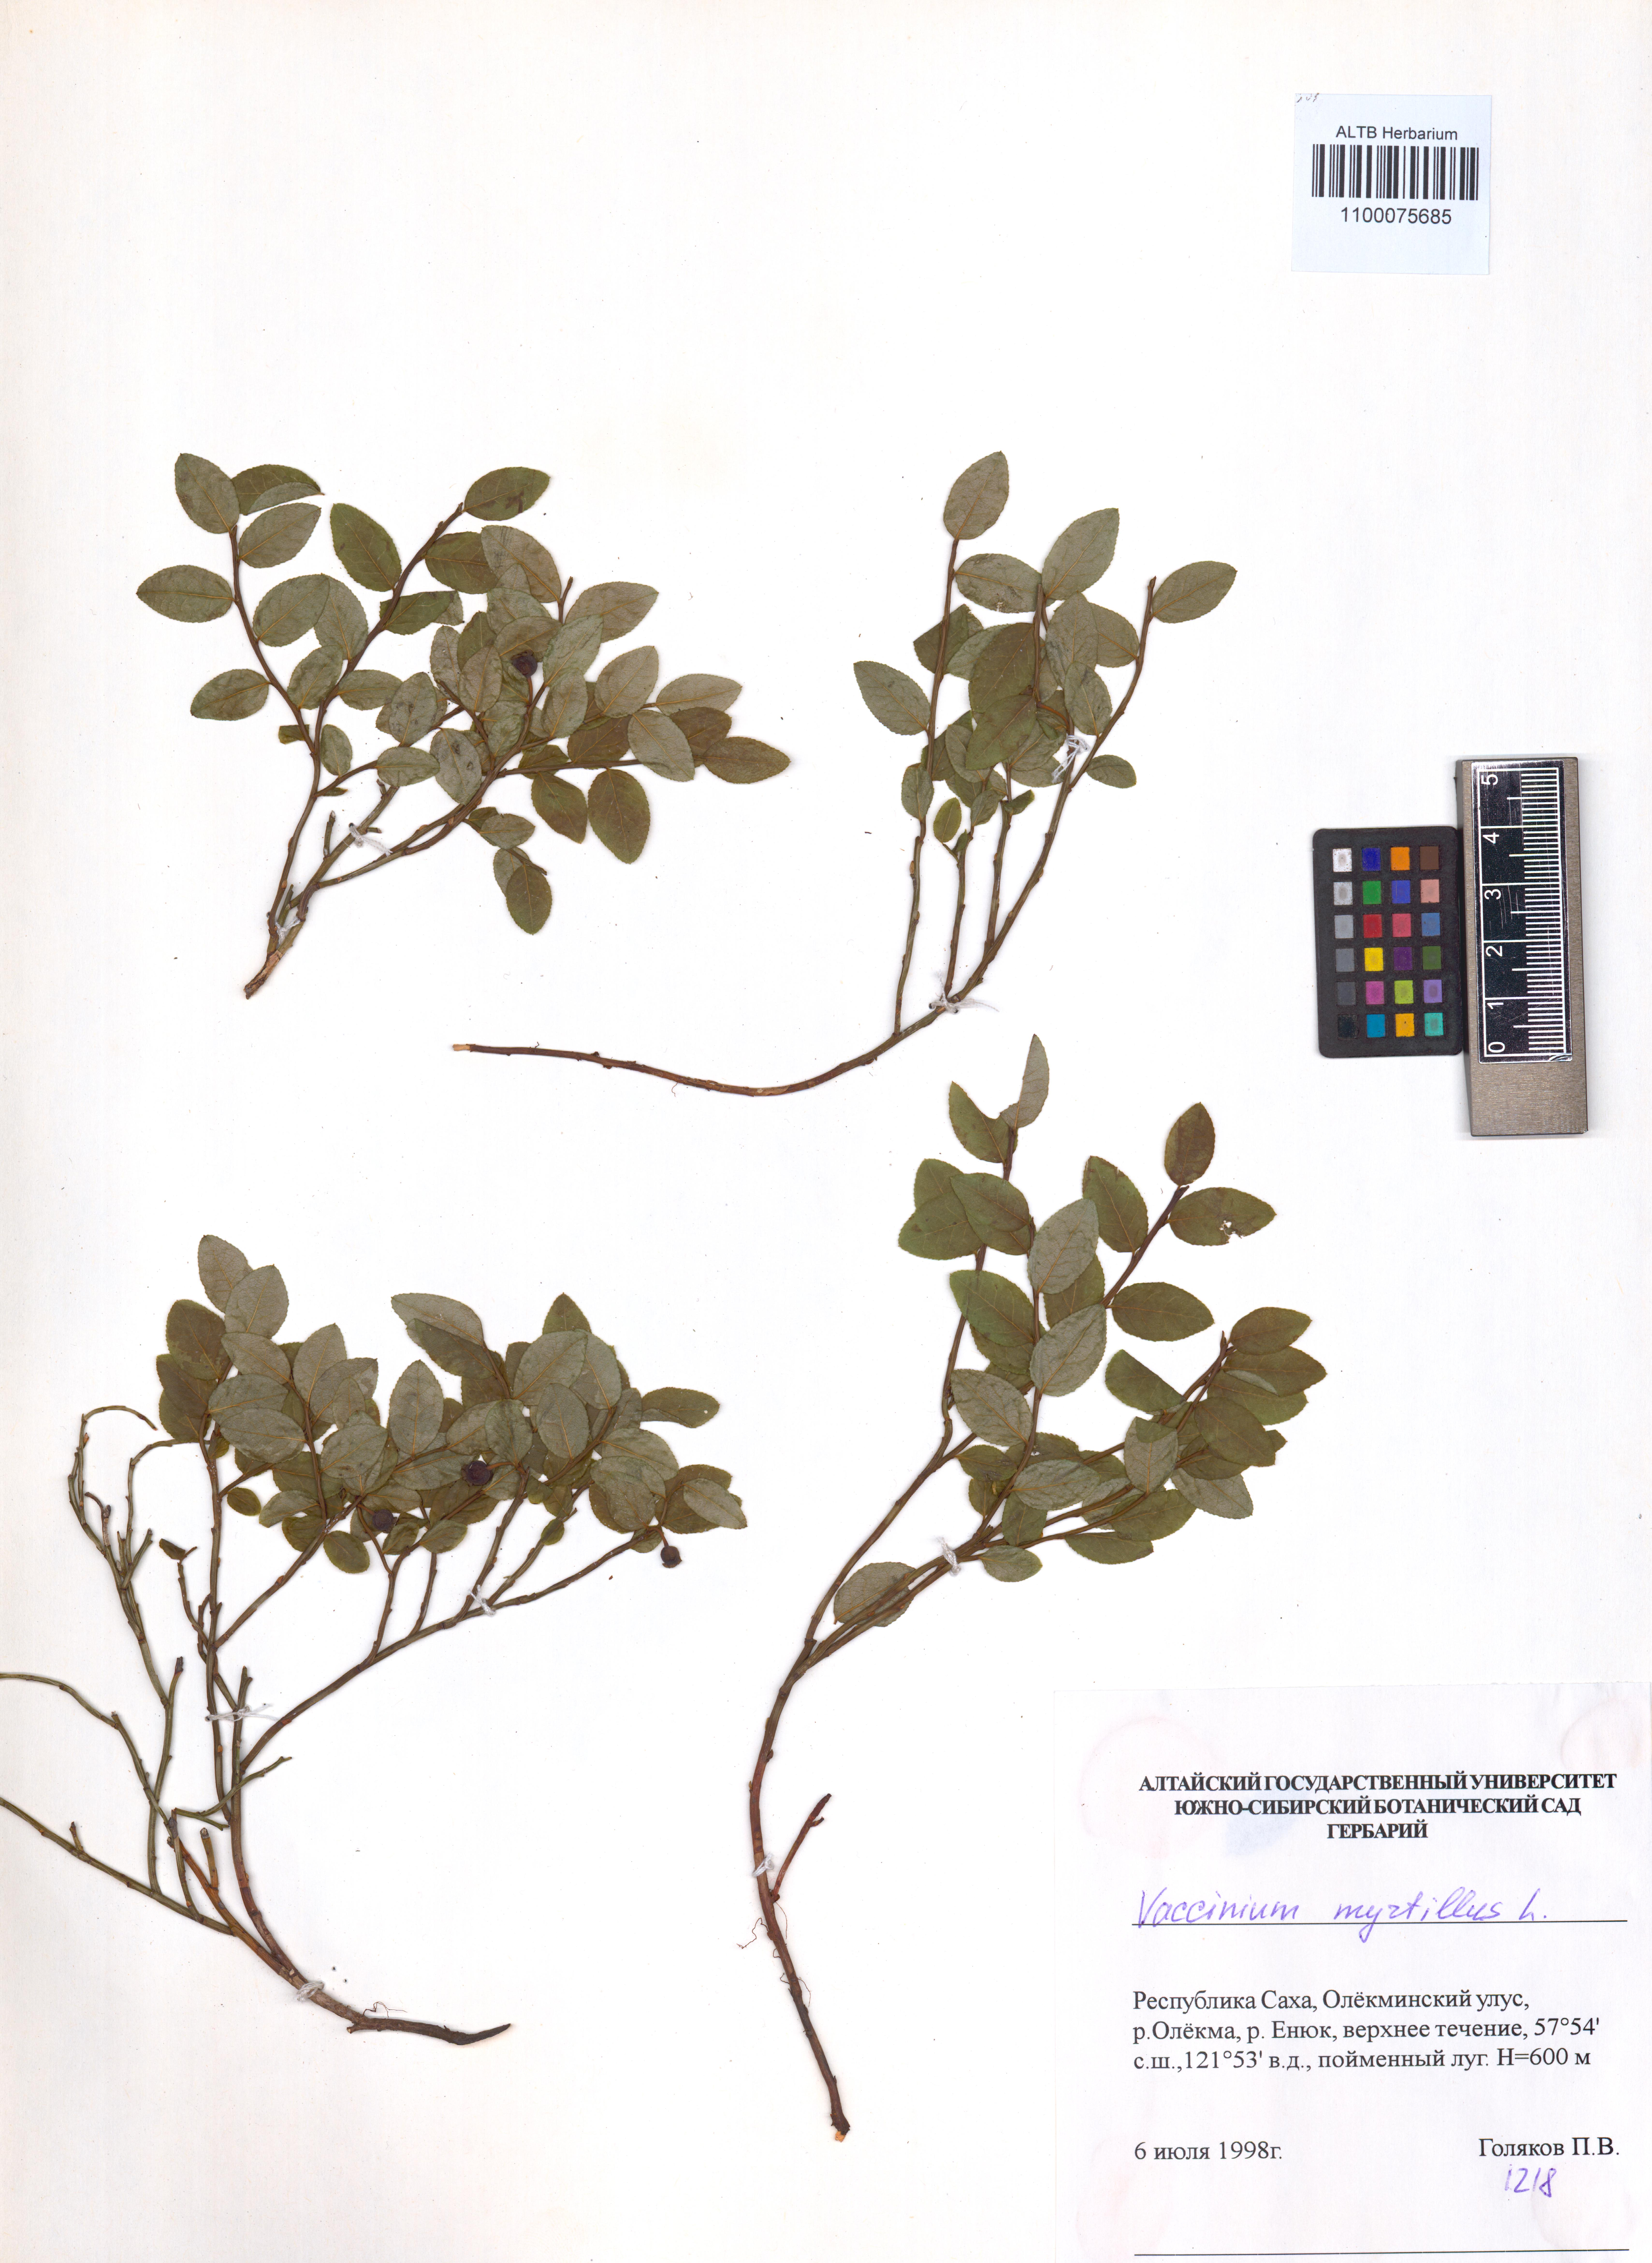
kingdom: Plantae
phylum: Tracheophyta
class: Magnoliopsida
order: Ericales
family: Ericaceae
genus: Vaccinium
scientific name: Vaccinium myrtillus
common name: Bilberry
